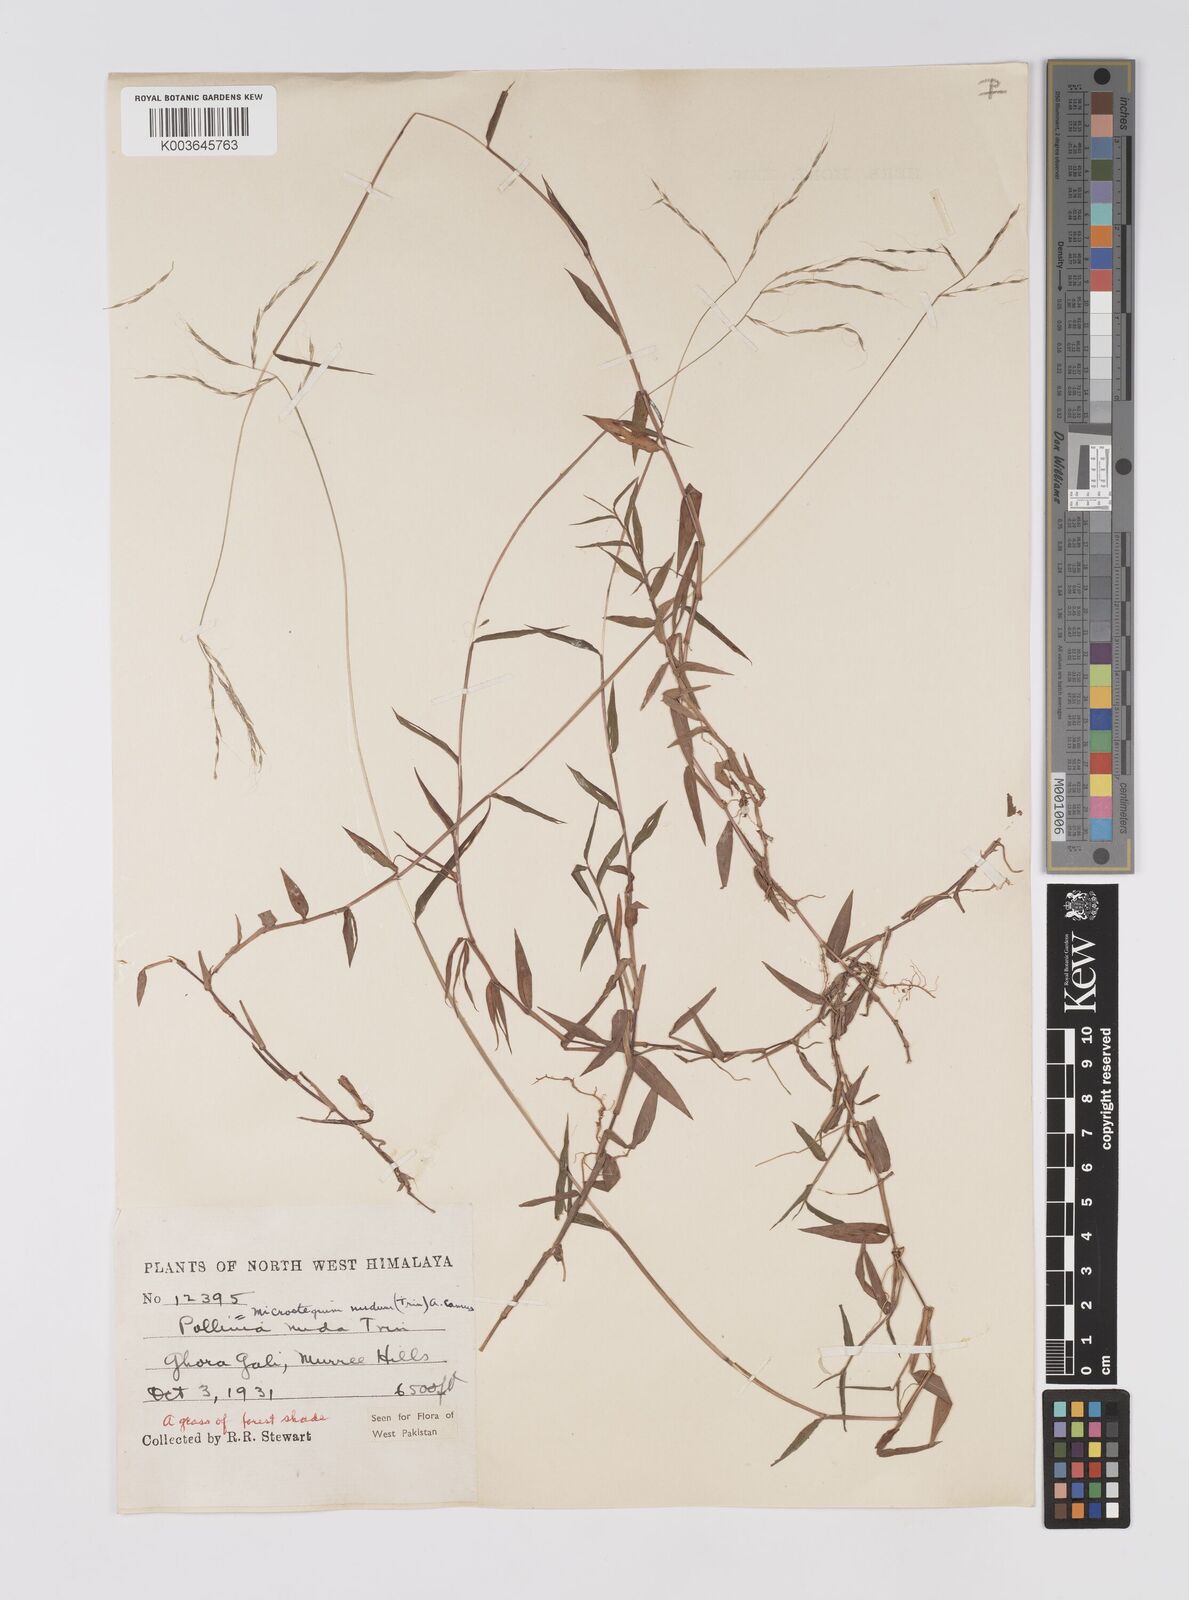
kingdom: Plantae
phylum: Tracheophyta
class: Liliopsida
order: Poales
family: Poaceae
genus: Microstegium
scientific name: Microstegium nudum
